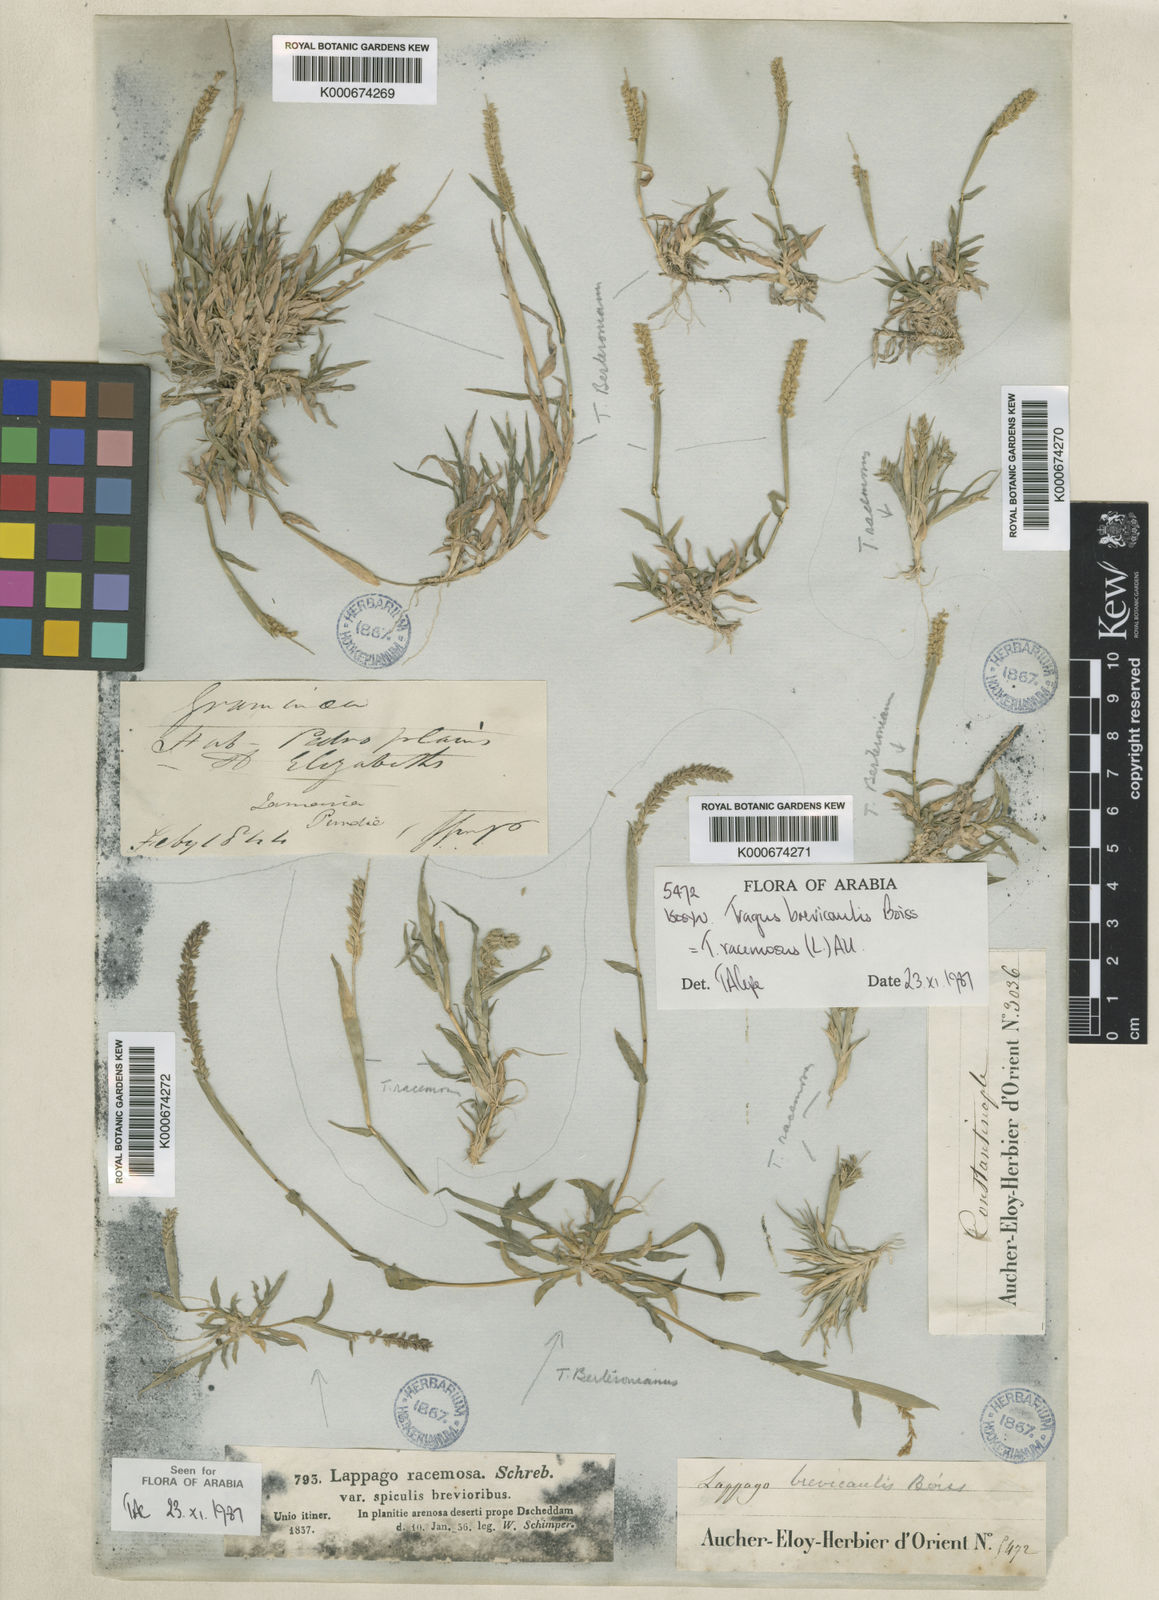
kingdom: Plantae
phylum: Tracheophyta
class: Liliopsida
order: Poales
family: Poaceae
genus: Tragus
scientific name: Tragus racemosus
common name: European bur-grass
